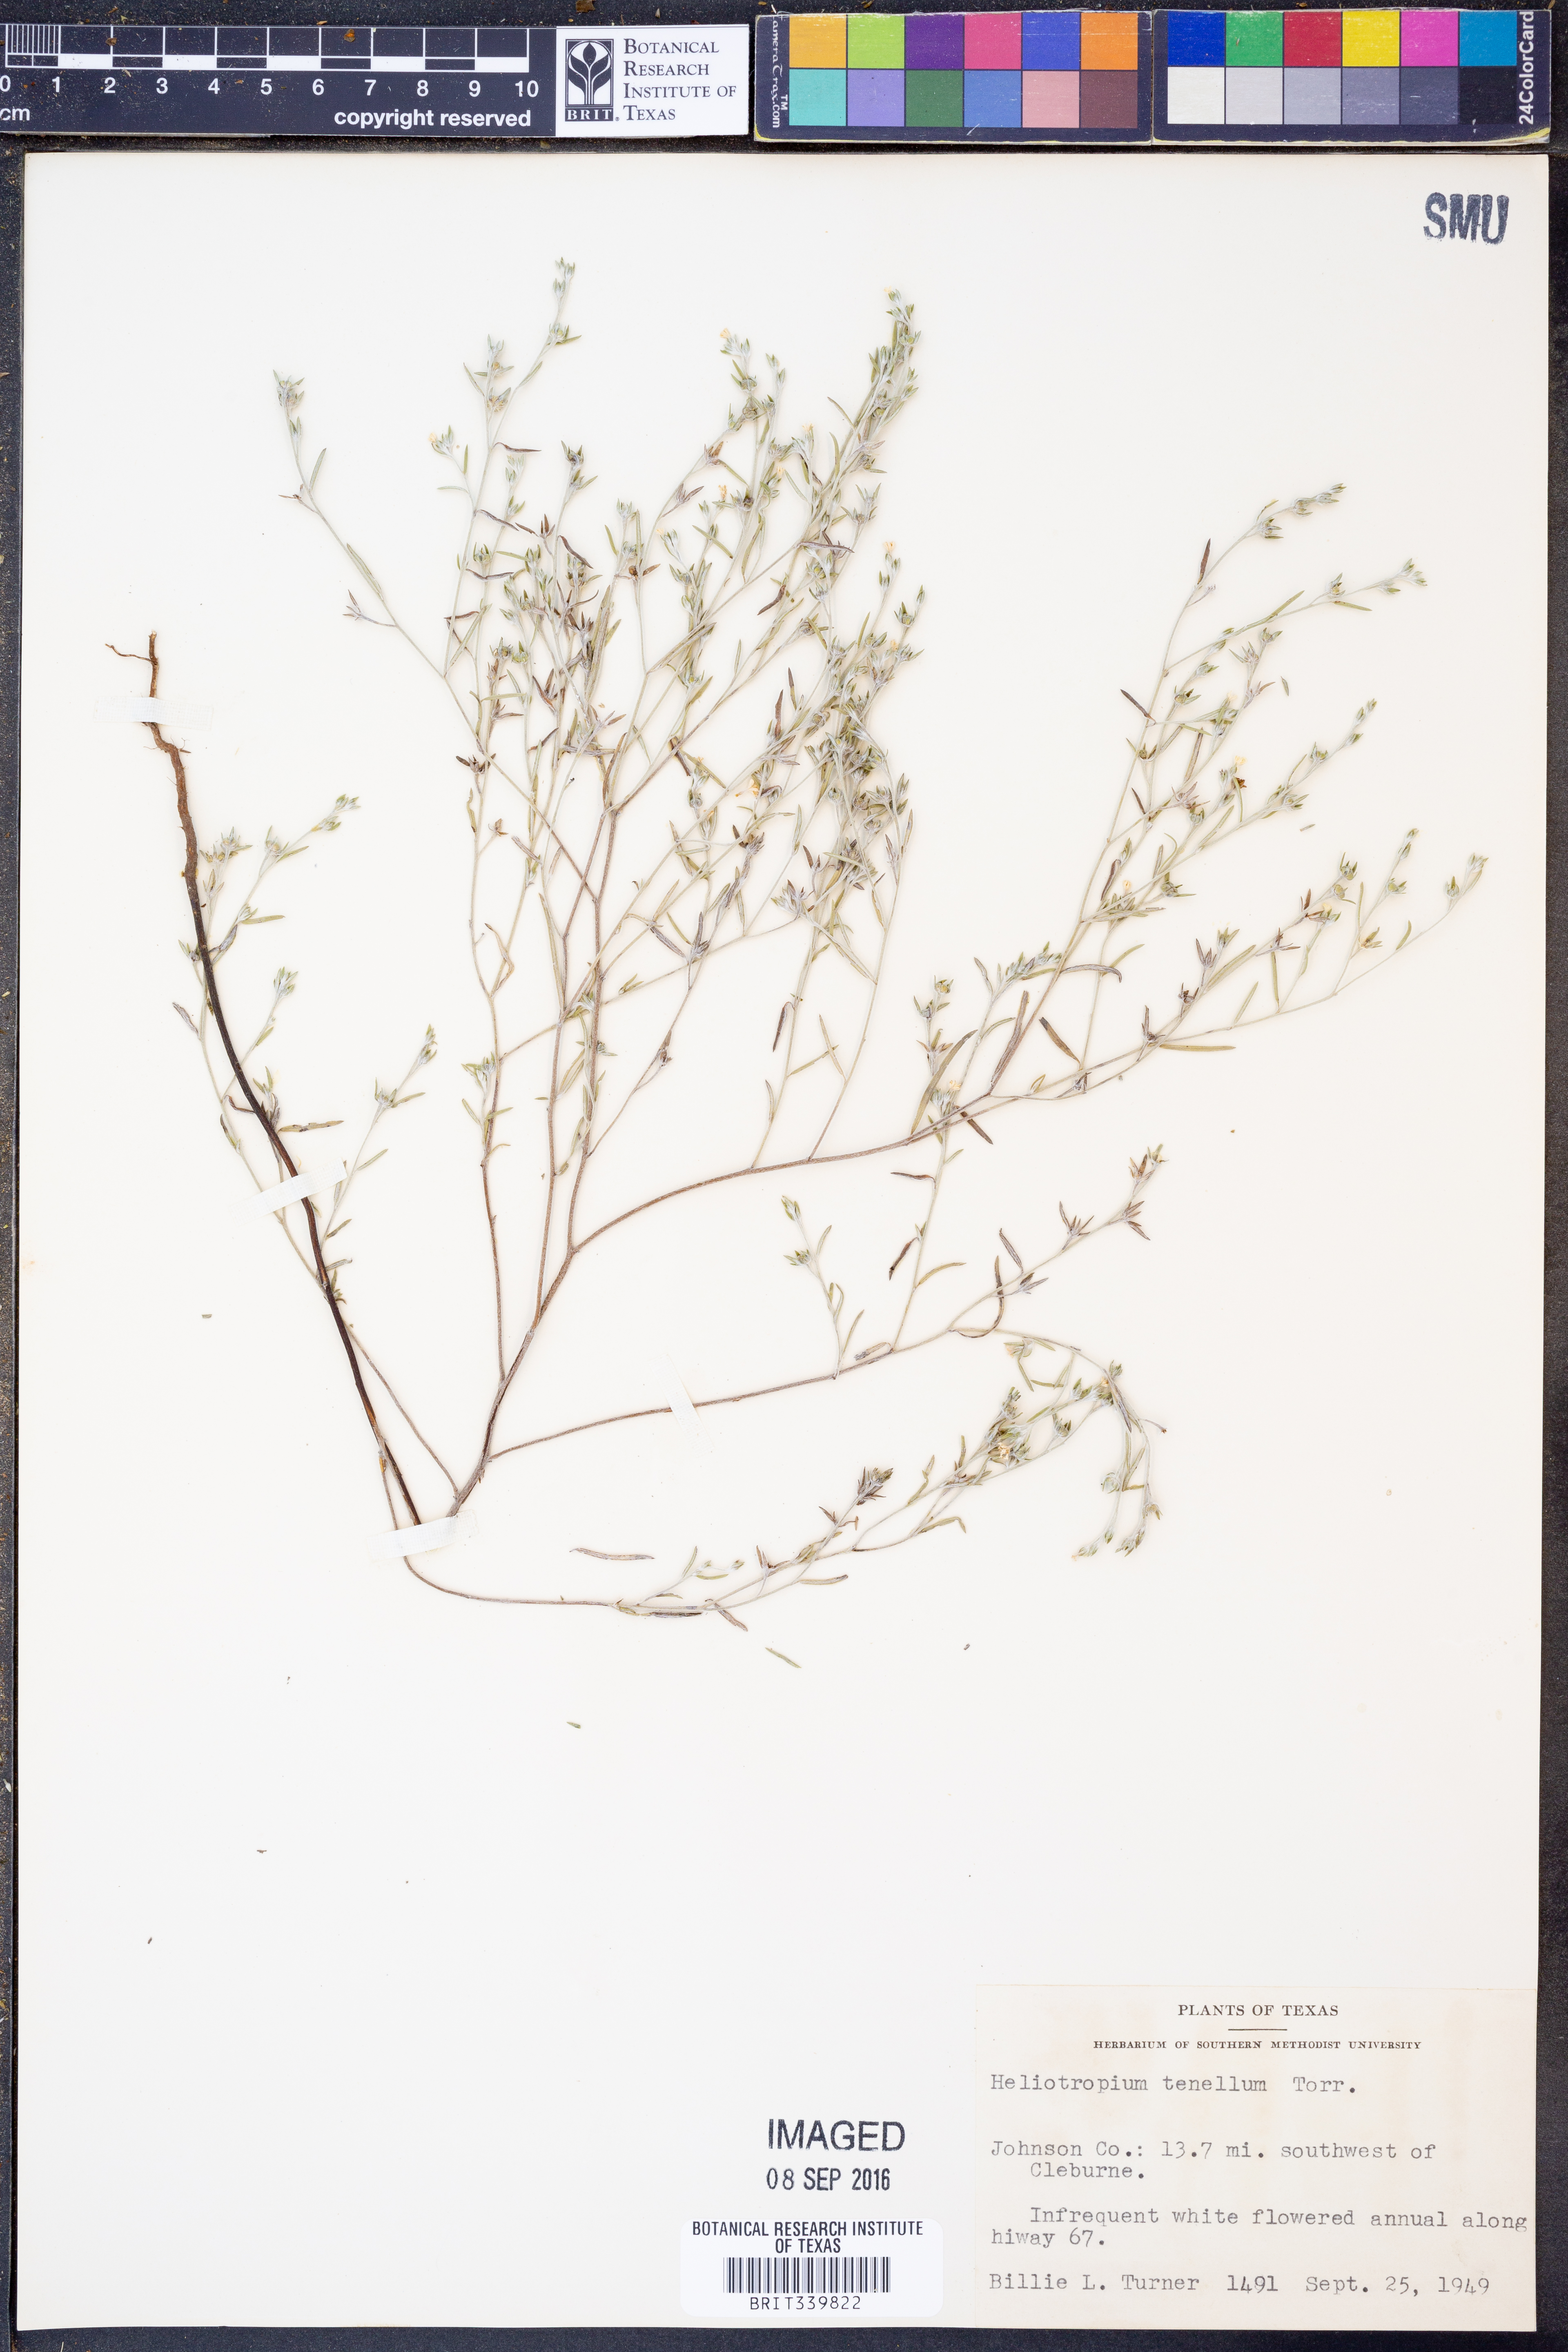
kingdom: Plantae
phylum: Tracheophyta
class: Magnoliopsida
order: Boraginales
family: Heliotropiaceae
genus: Euploca
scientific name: Euploca tenella
